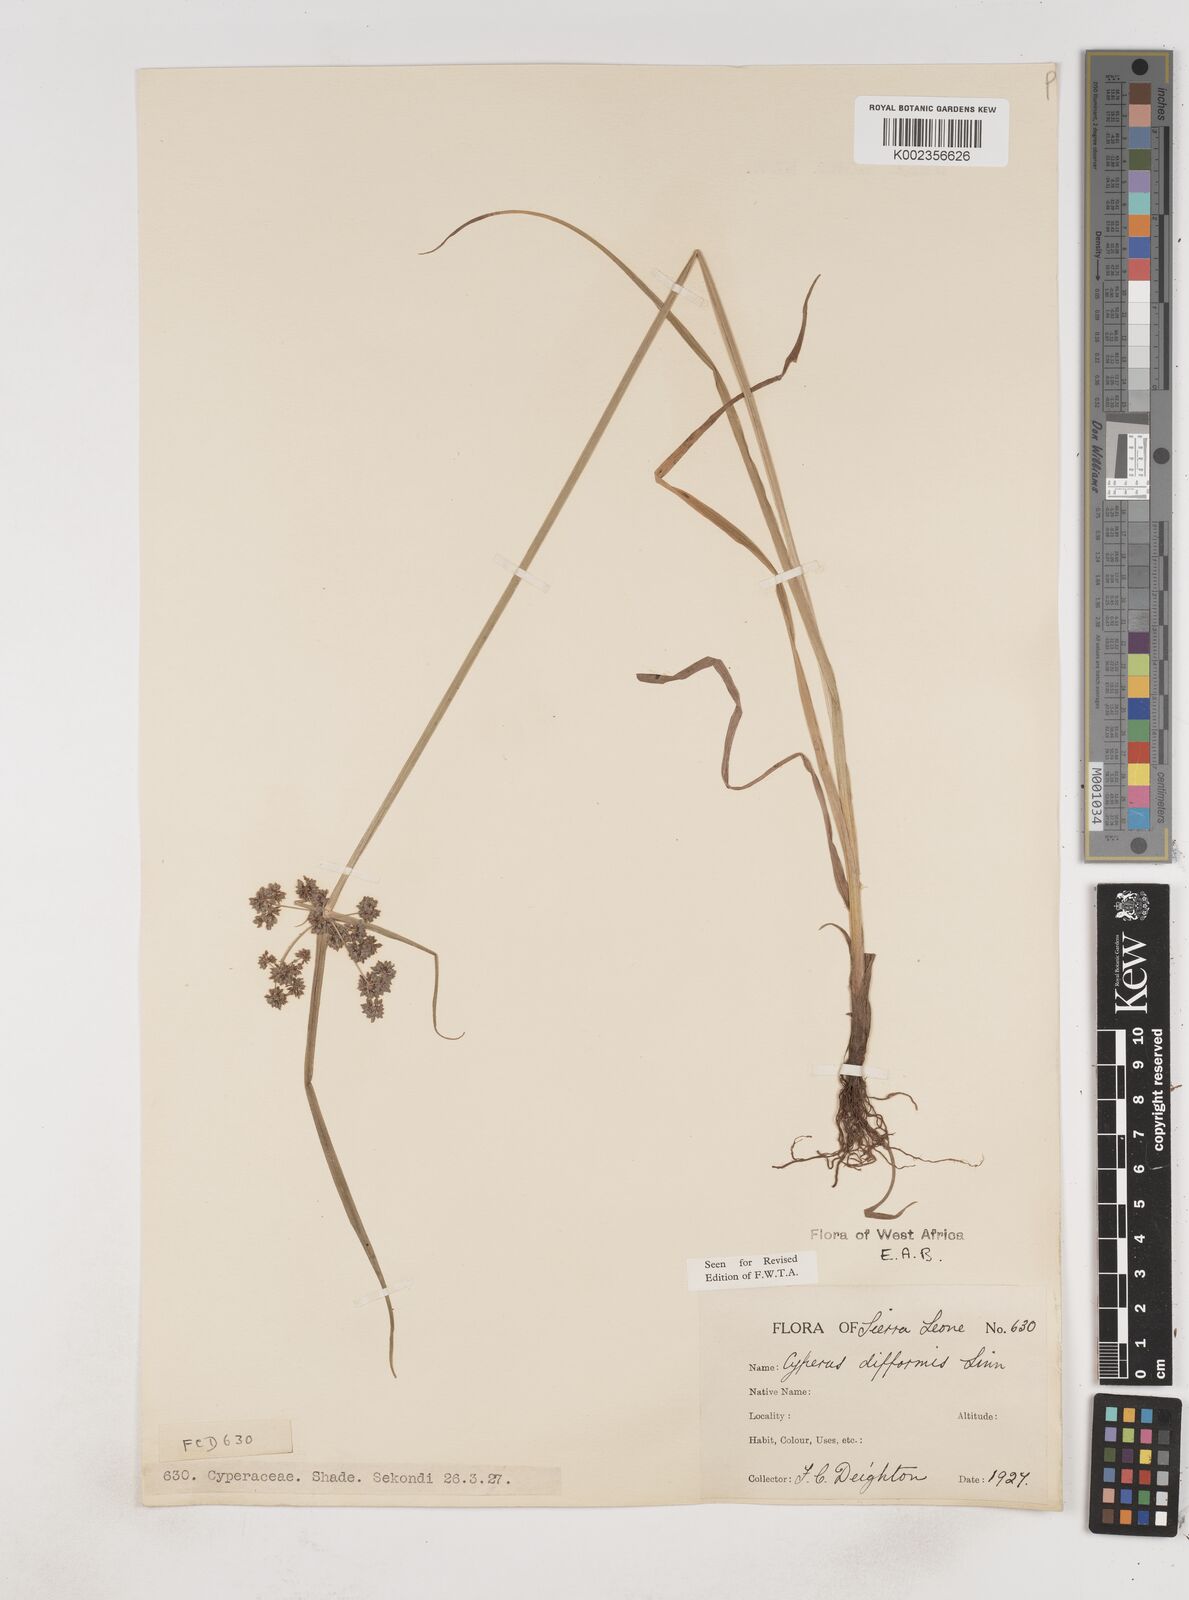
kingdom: Plantae
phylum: Tracheophyta
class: Liliopsida
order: Poales
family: Cyperaceae
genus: Cyperus
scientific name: Cyperus difformis
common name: Variable flatsedge
